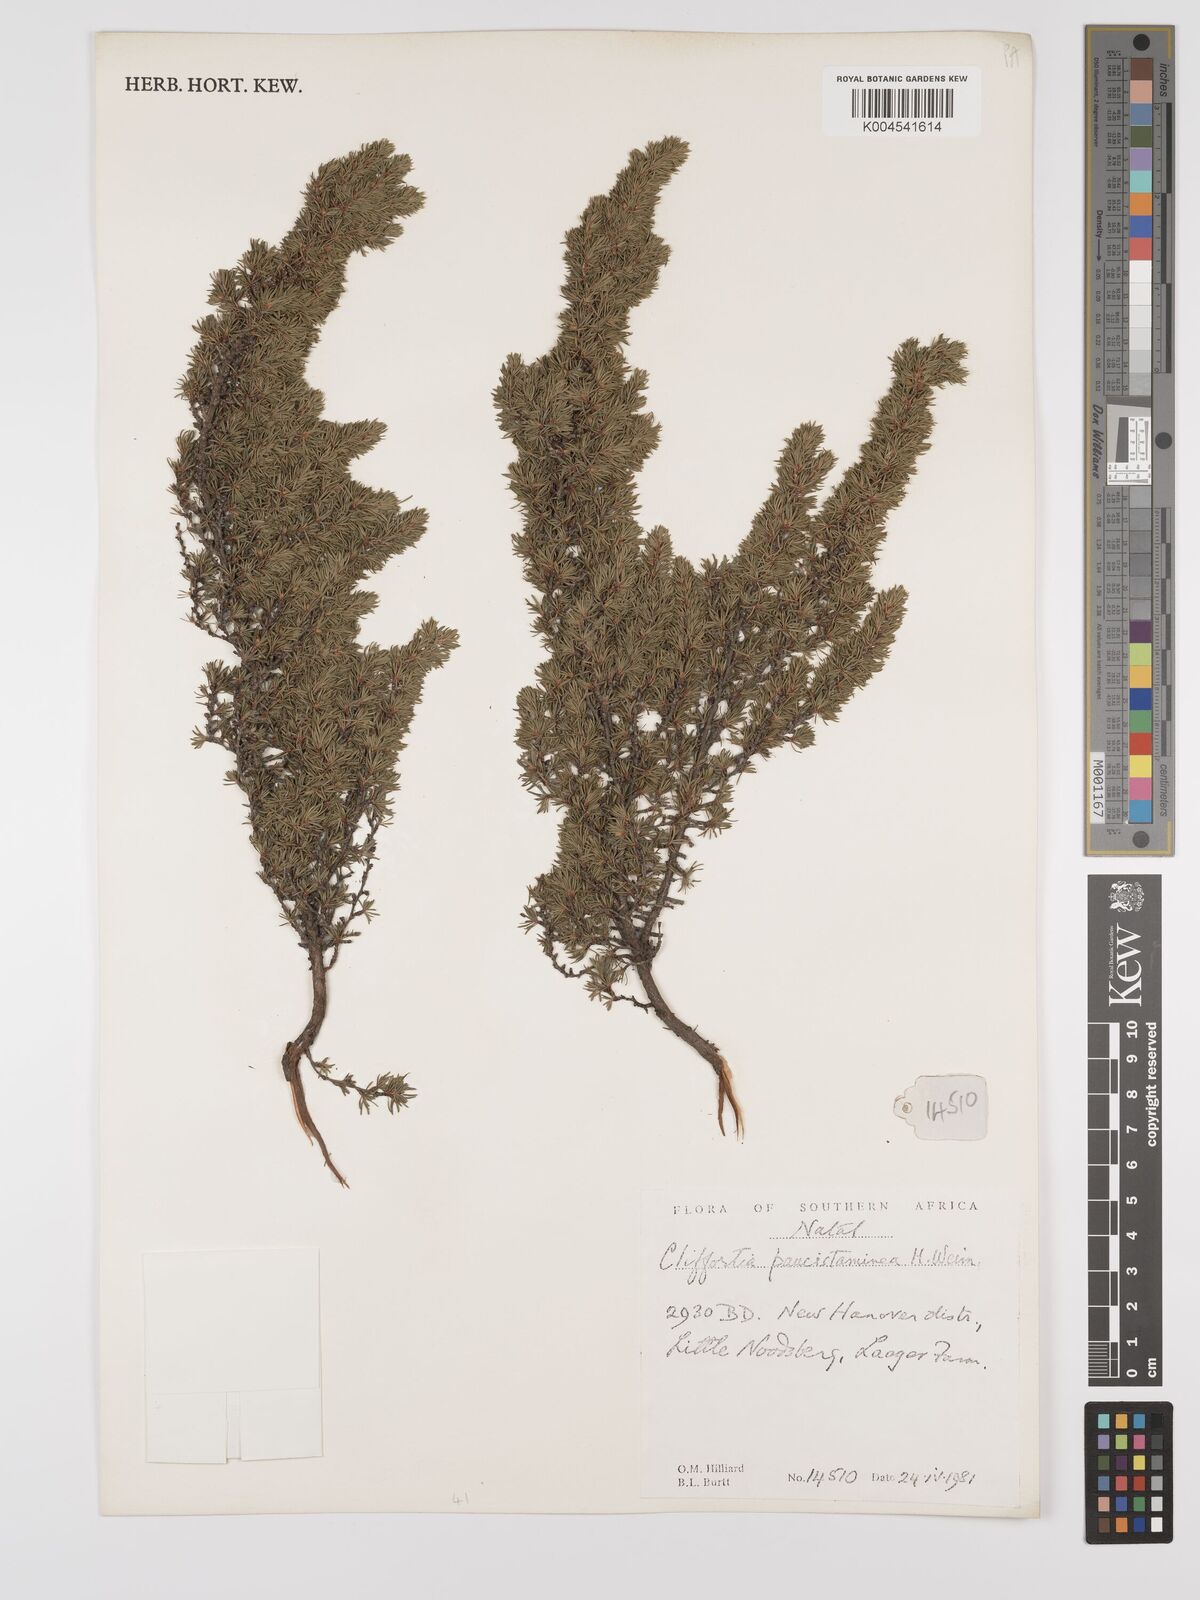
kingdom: Plantae
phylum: Tracheophyta
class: Magnoliopsida
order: Rosales
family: Rosaceae
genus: Cliffortia
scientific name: Cliffortia paucistaminea
